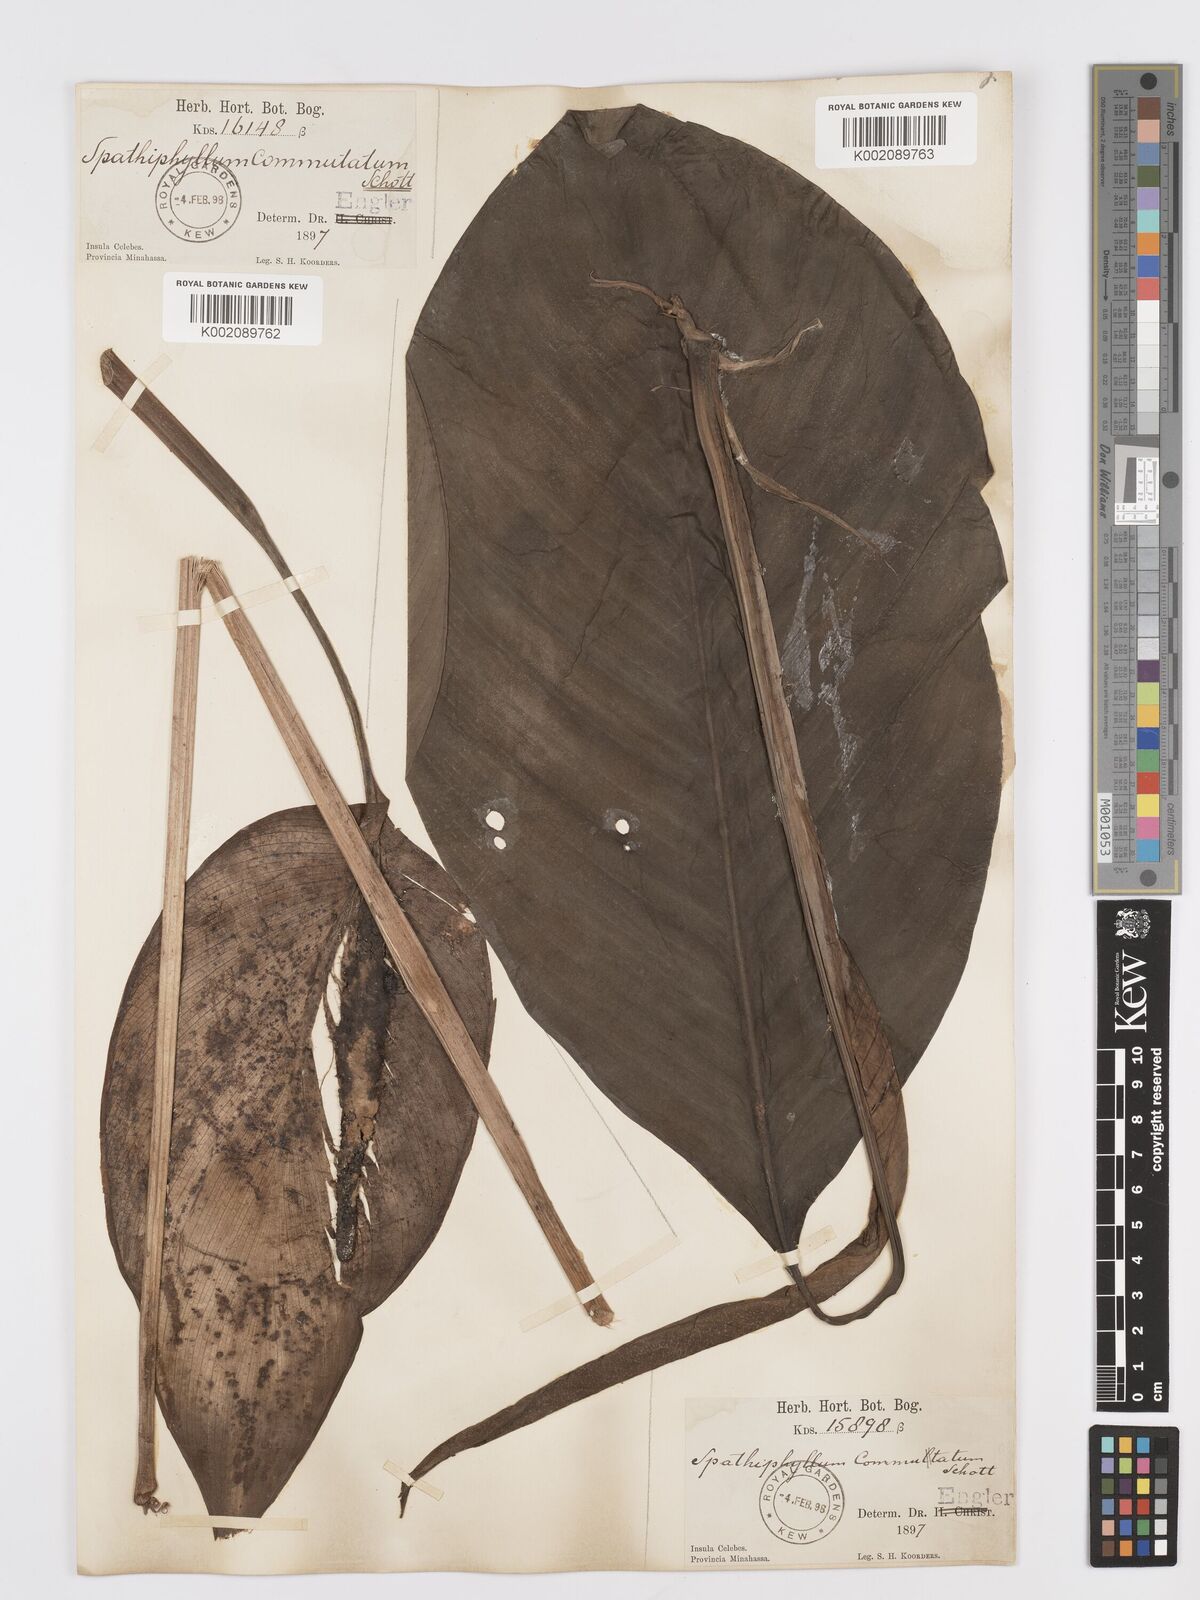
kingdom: Plantae
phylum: Tracheophyta
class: Liliopsida
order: Alismatales
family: Araceae
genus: Spathiphyllum
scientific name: Spathiphyllum commutatum
